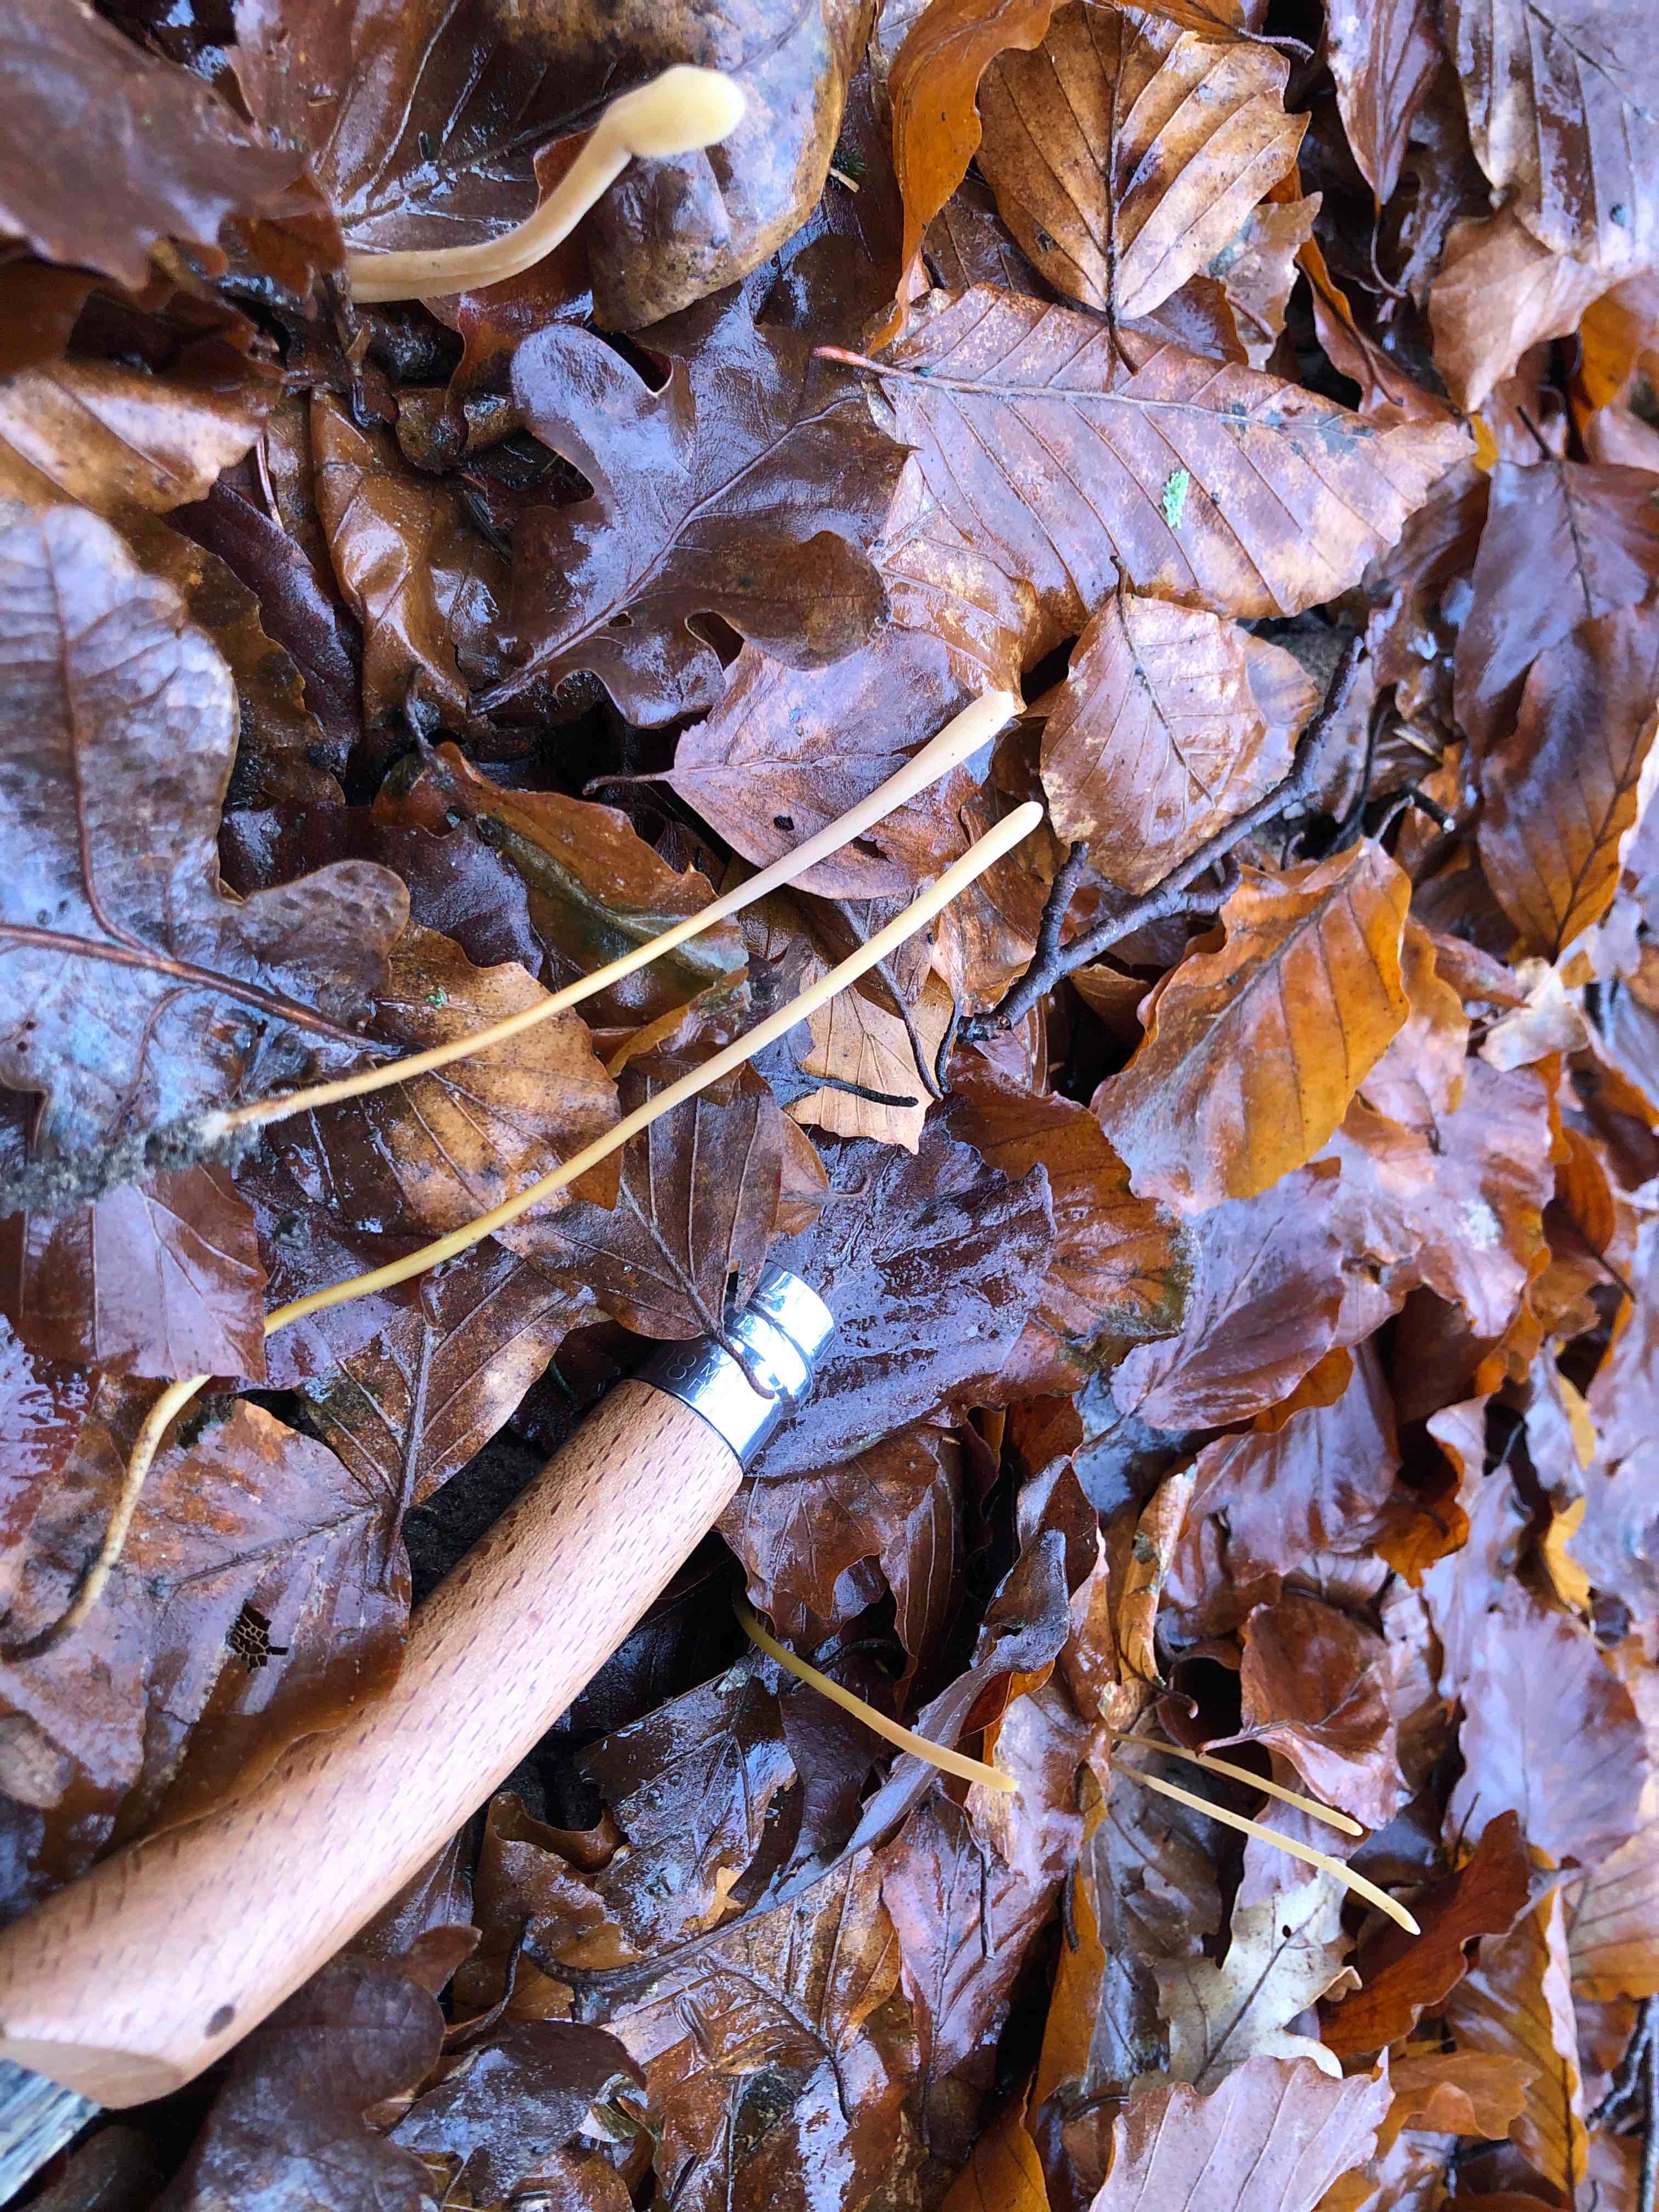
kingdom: Fungi
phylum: Basidiomycota
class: Agaricomycetes
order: Agaricales
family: Typhulaceae
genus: Typhula
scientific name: Typhula fistulosa
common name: pibet rørkølle
